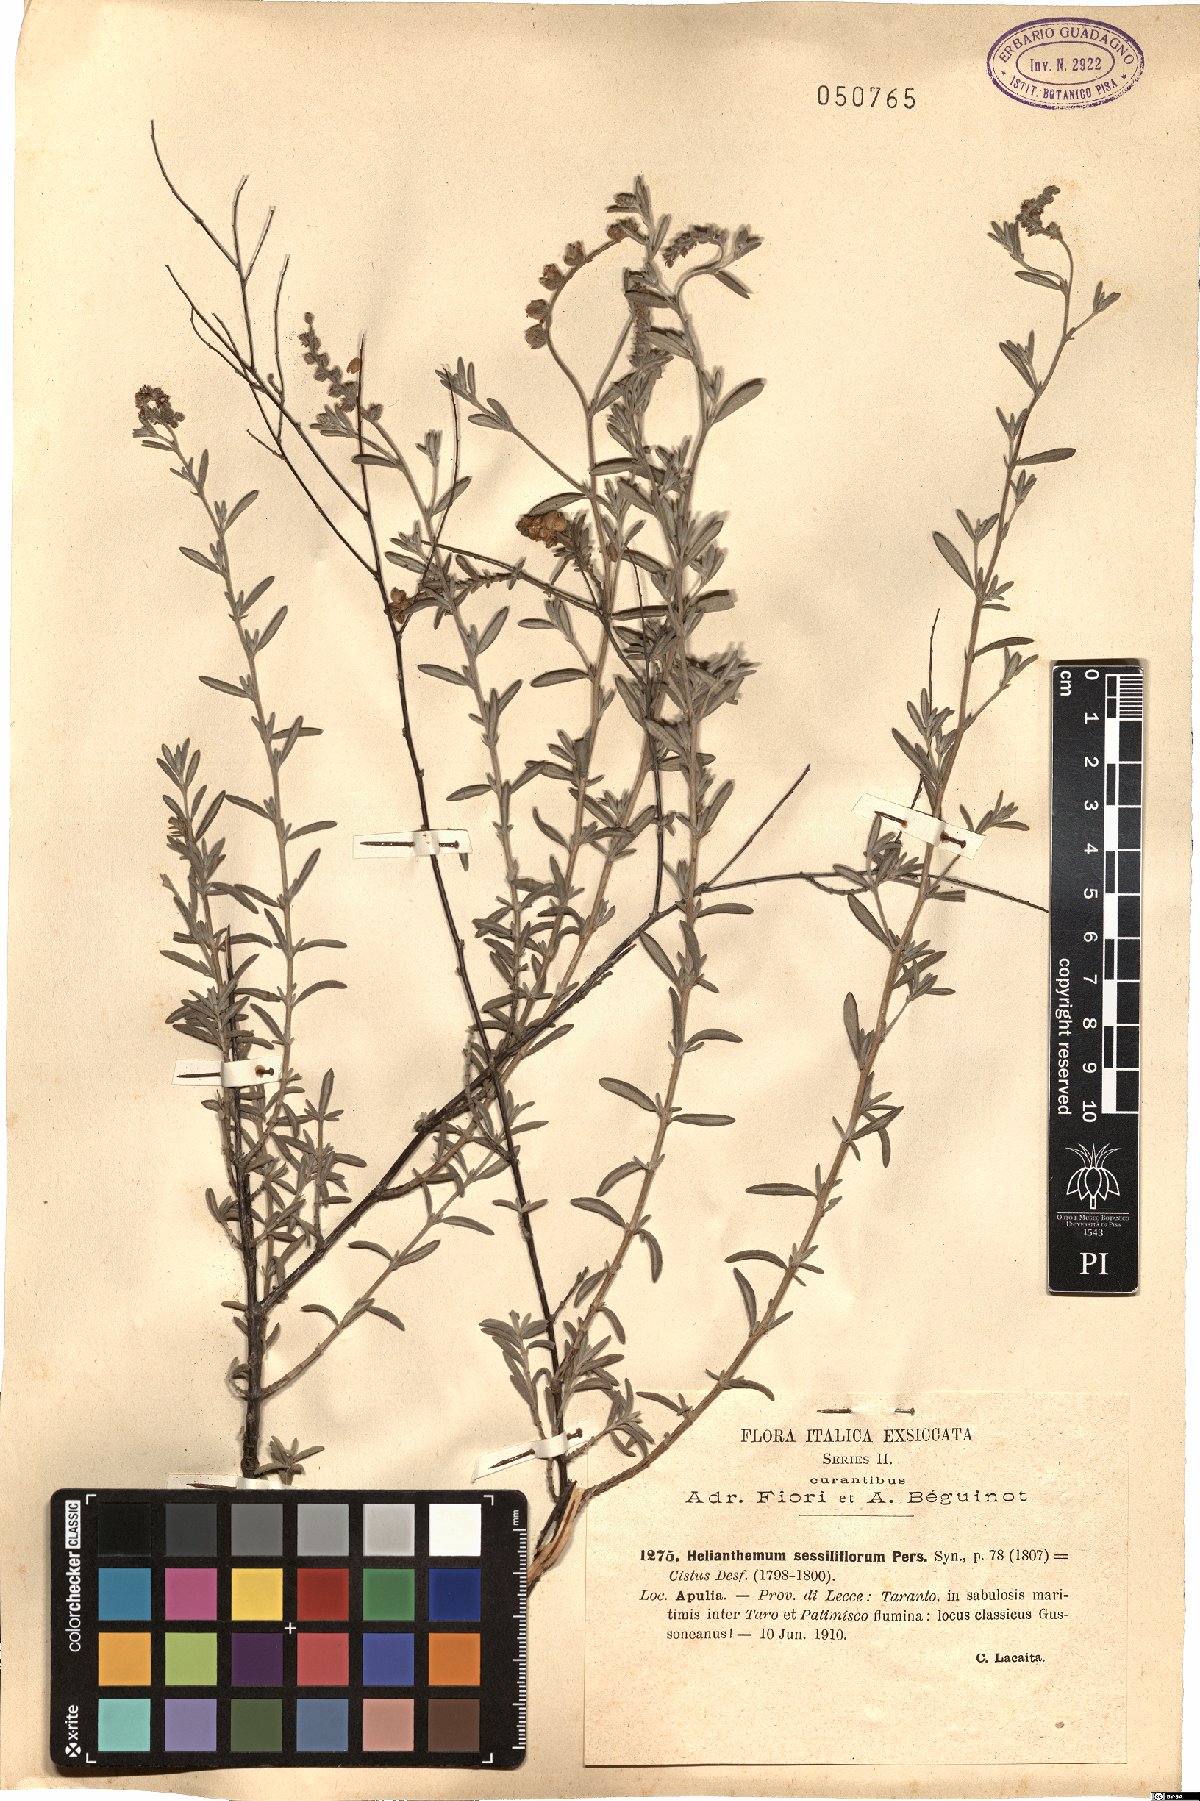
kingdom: Plantae
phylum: Tracheophyta
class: Magnoliopsida
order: Malvales
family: Cistaceae
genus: Helianthemum
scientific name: Helianthemum lippii
